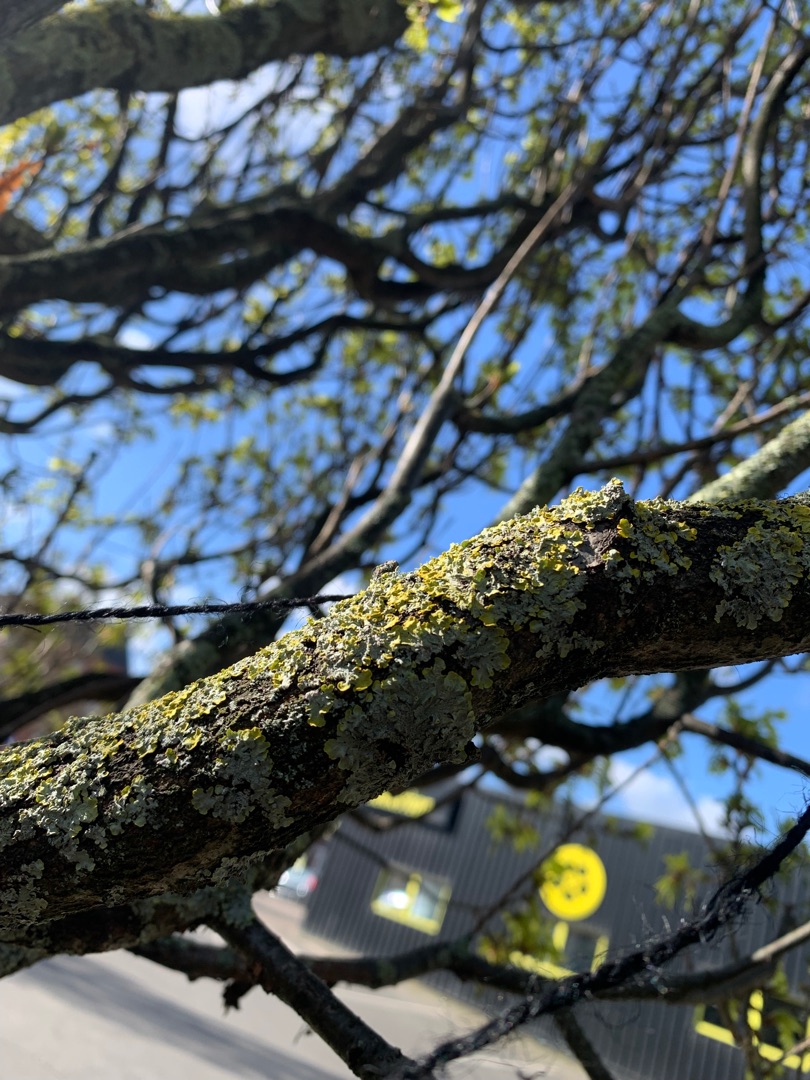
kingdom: Fungi
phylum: Ascomycota
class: Lecanoromycetes
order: Teloschistales
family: Teloschistaceae
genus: Xanthoria
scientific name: Xanthoria parietina
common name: Almindelig væggelav
